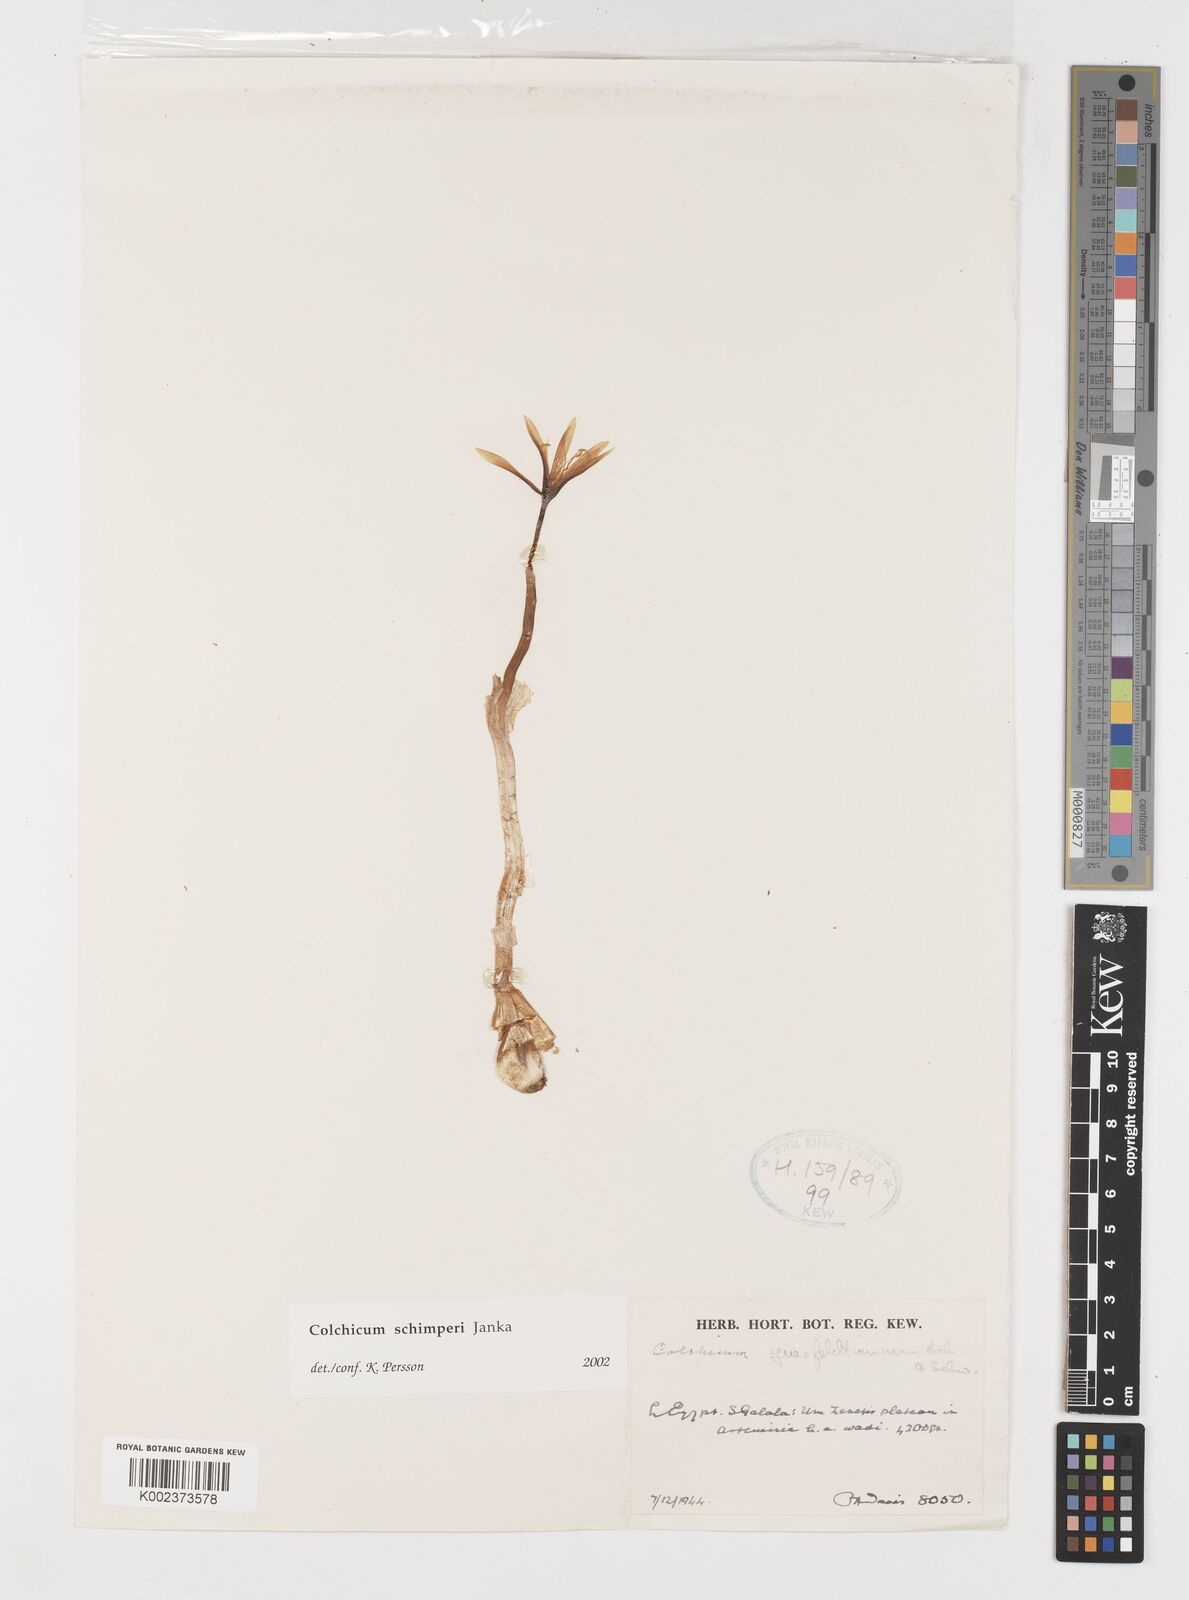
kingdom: Plantae
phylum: Tracheophyta
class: Liliopsida
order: Liliales
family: Colchicaceae
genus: Colchicum
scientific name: Colchicum schimperi
